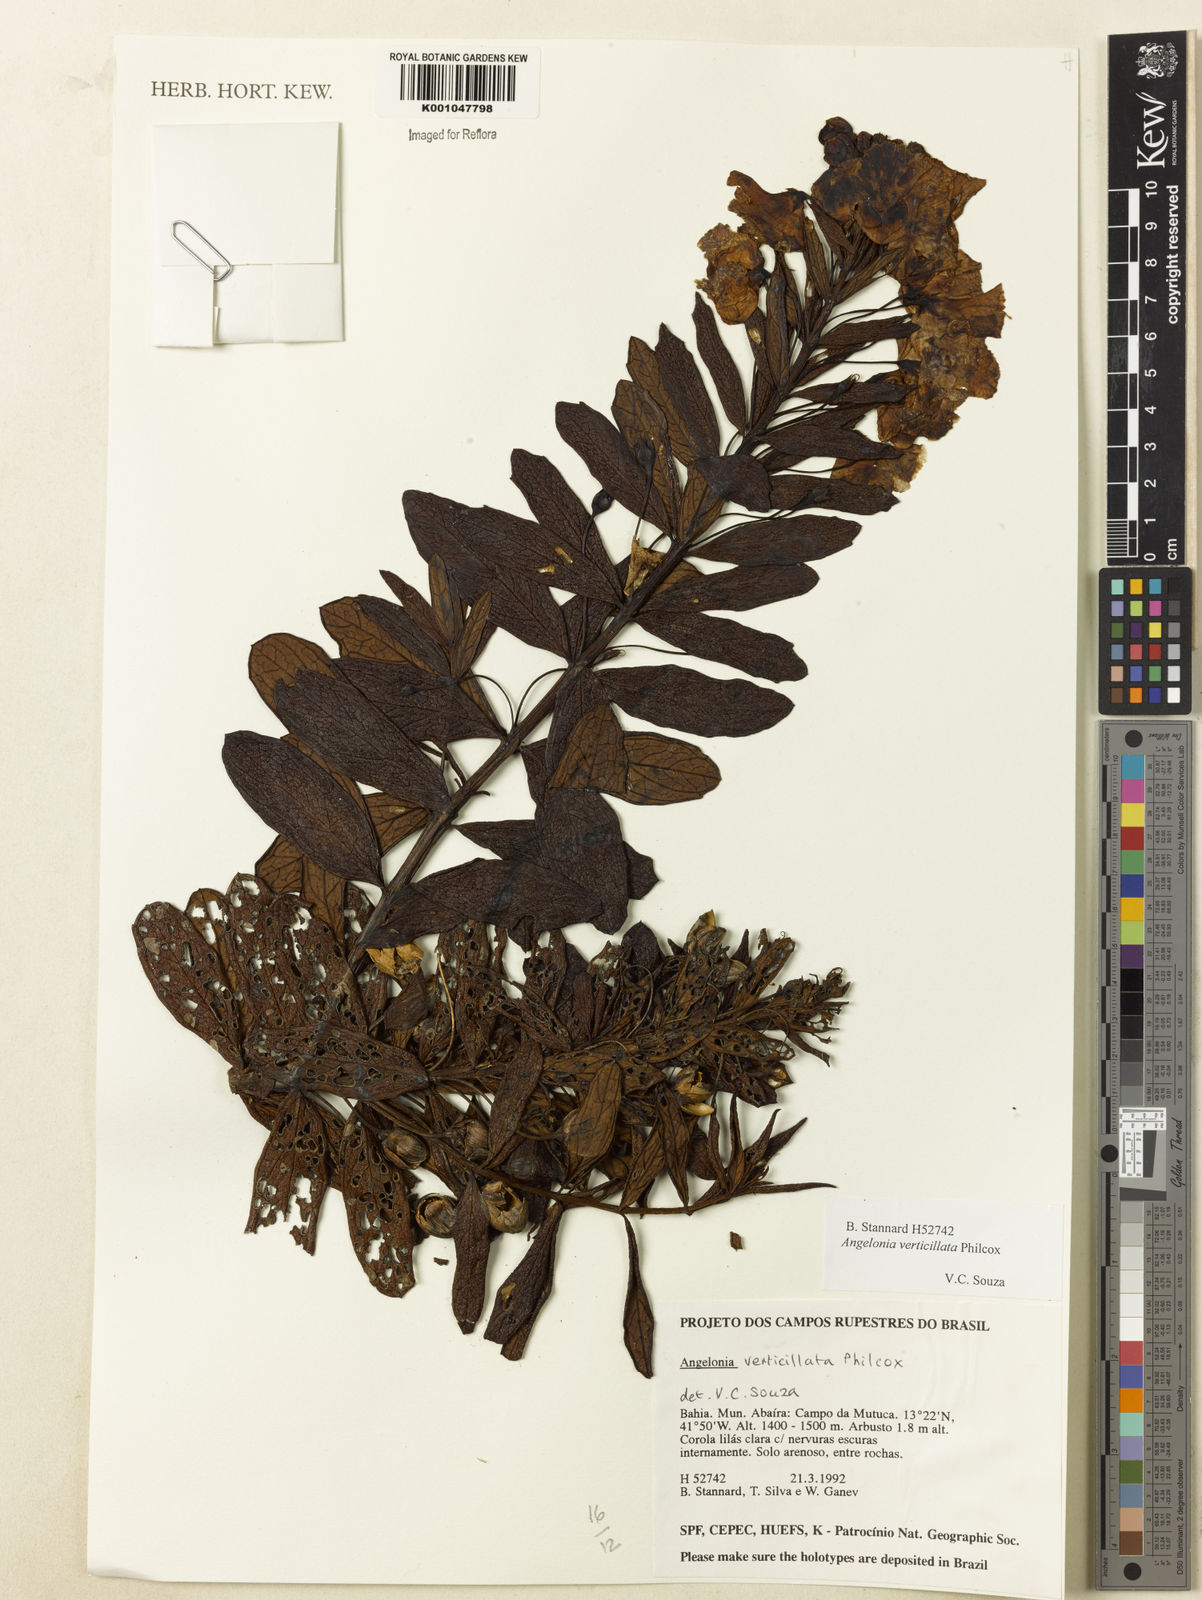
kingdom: Plantae
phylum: Tracheophyta
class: Magnoliopsida
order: Lamiales
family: Plantaginaceae
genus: Angelonia
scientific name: Angelonia verticillata
